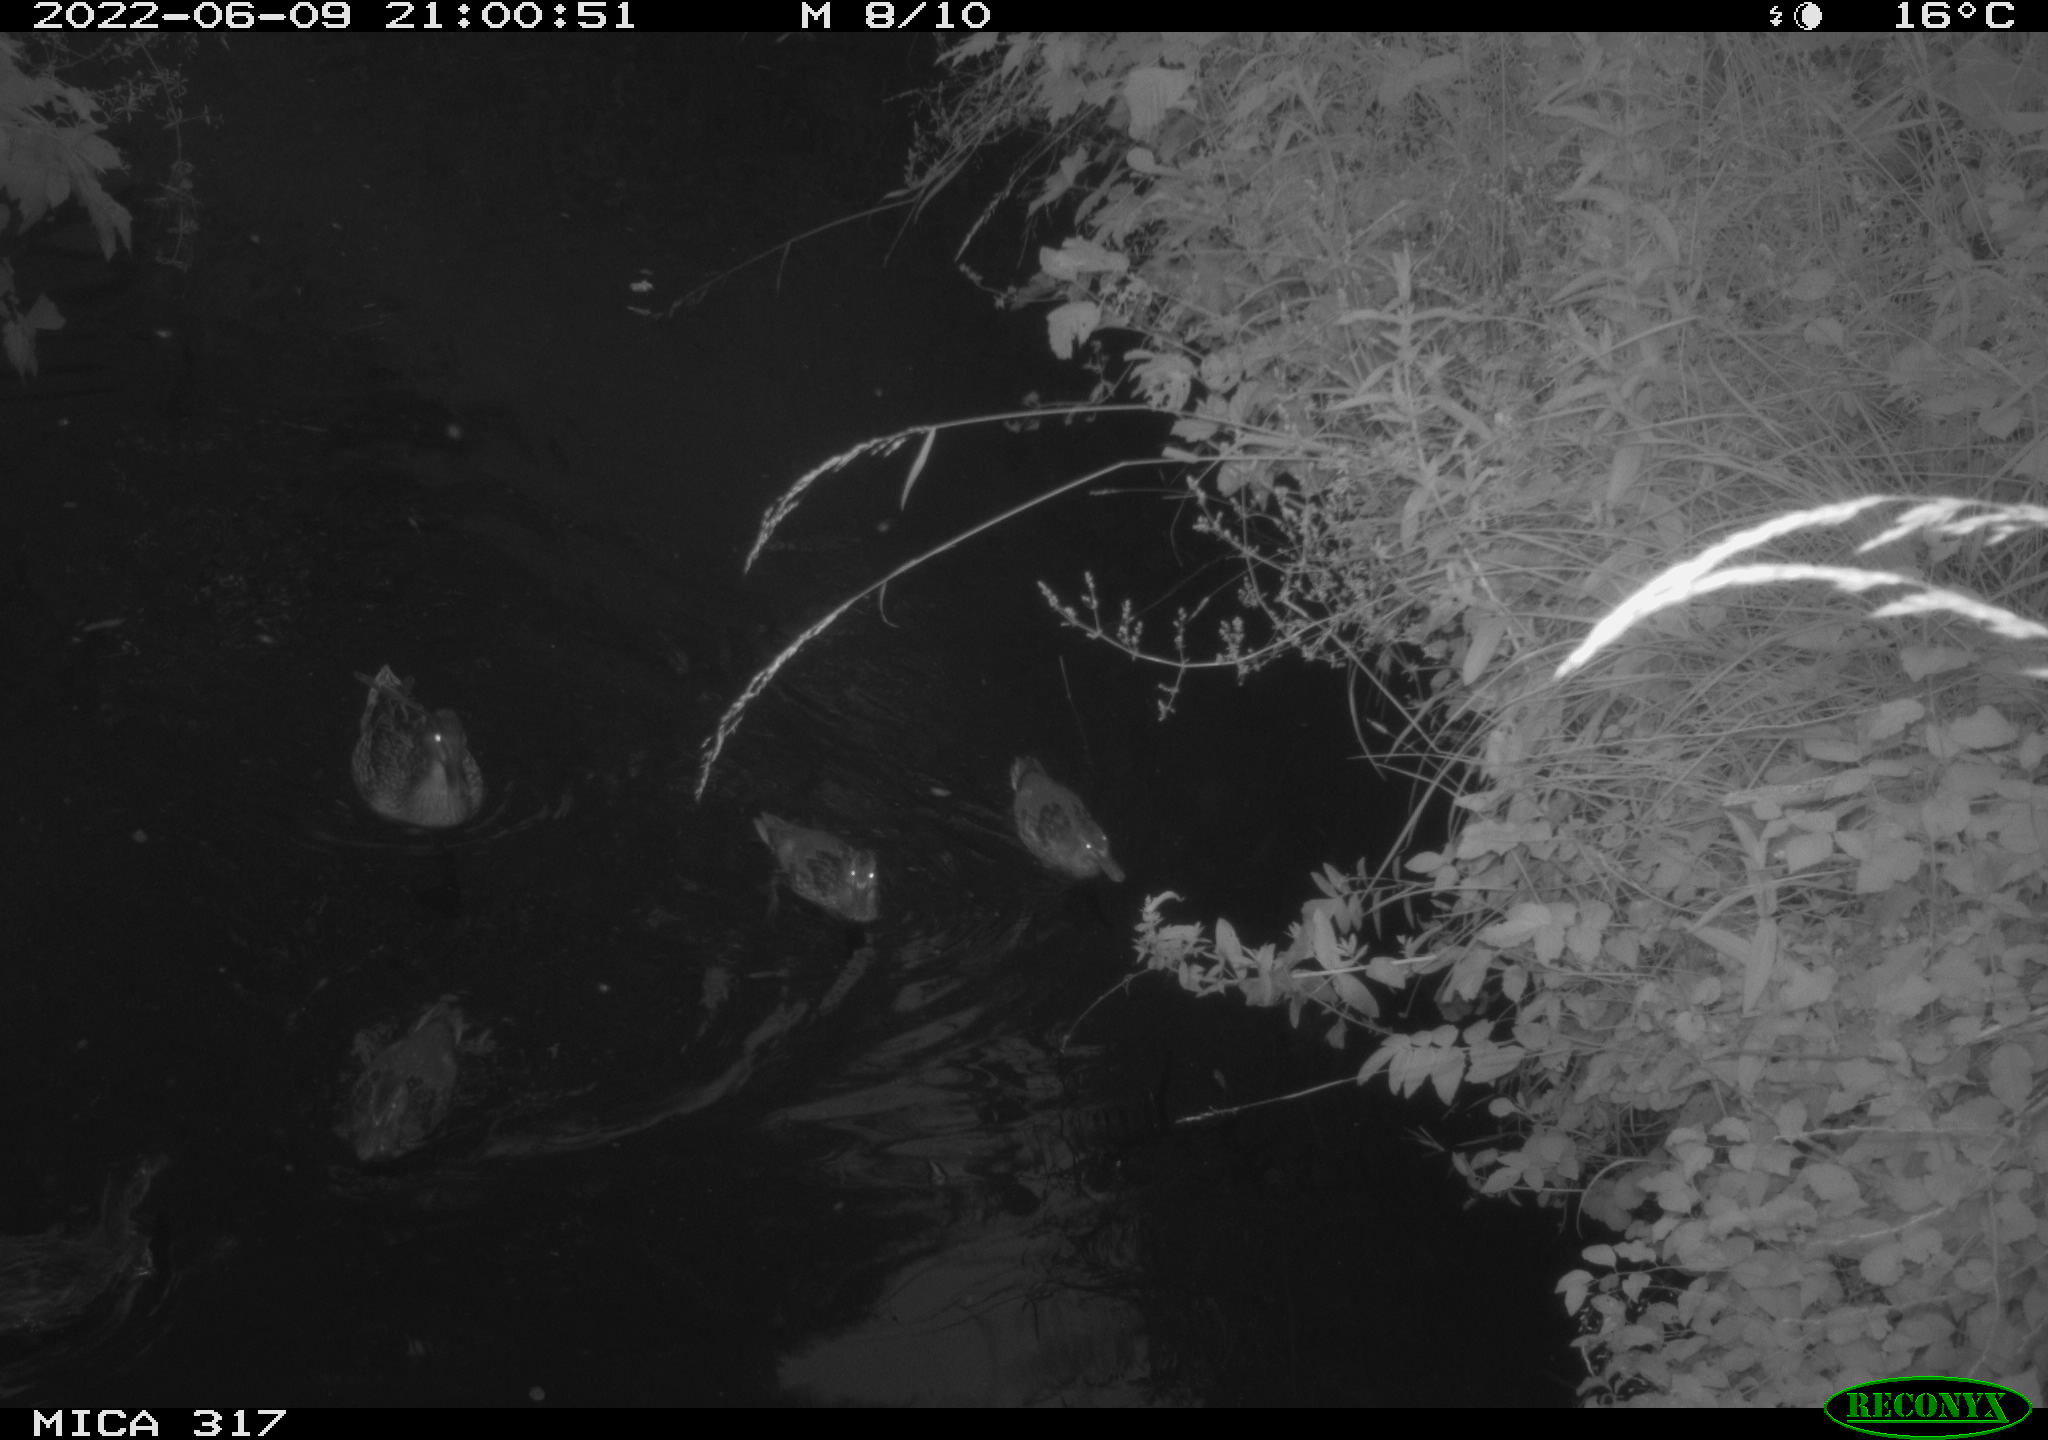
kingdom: Animalia
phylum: Chordata
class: Aves
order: Anseriformes
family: Anatidae
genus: Anas
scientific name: Anas
